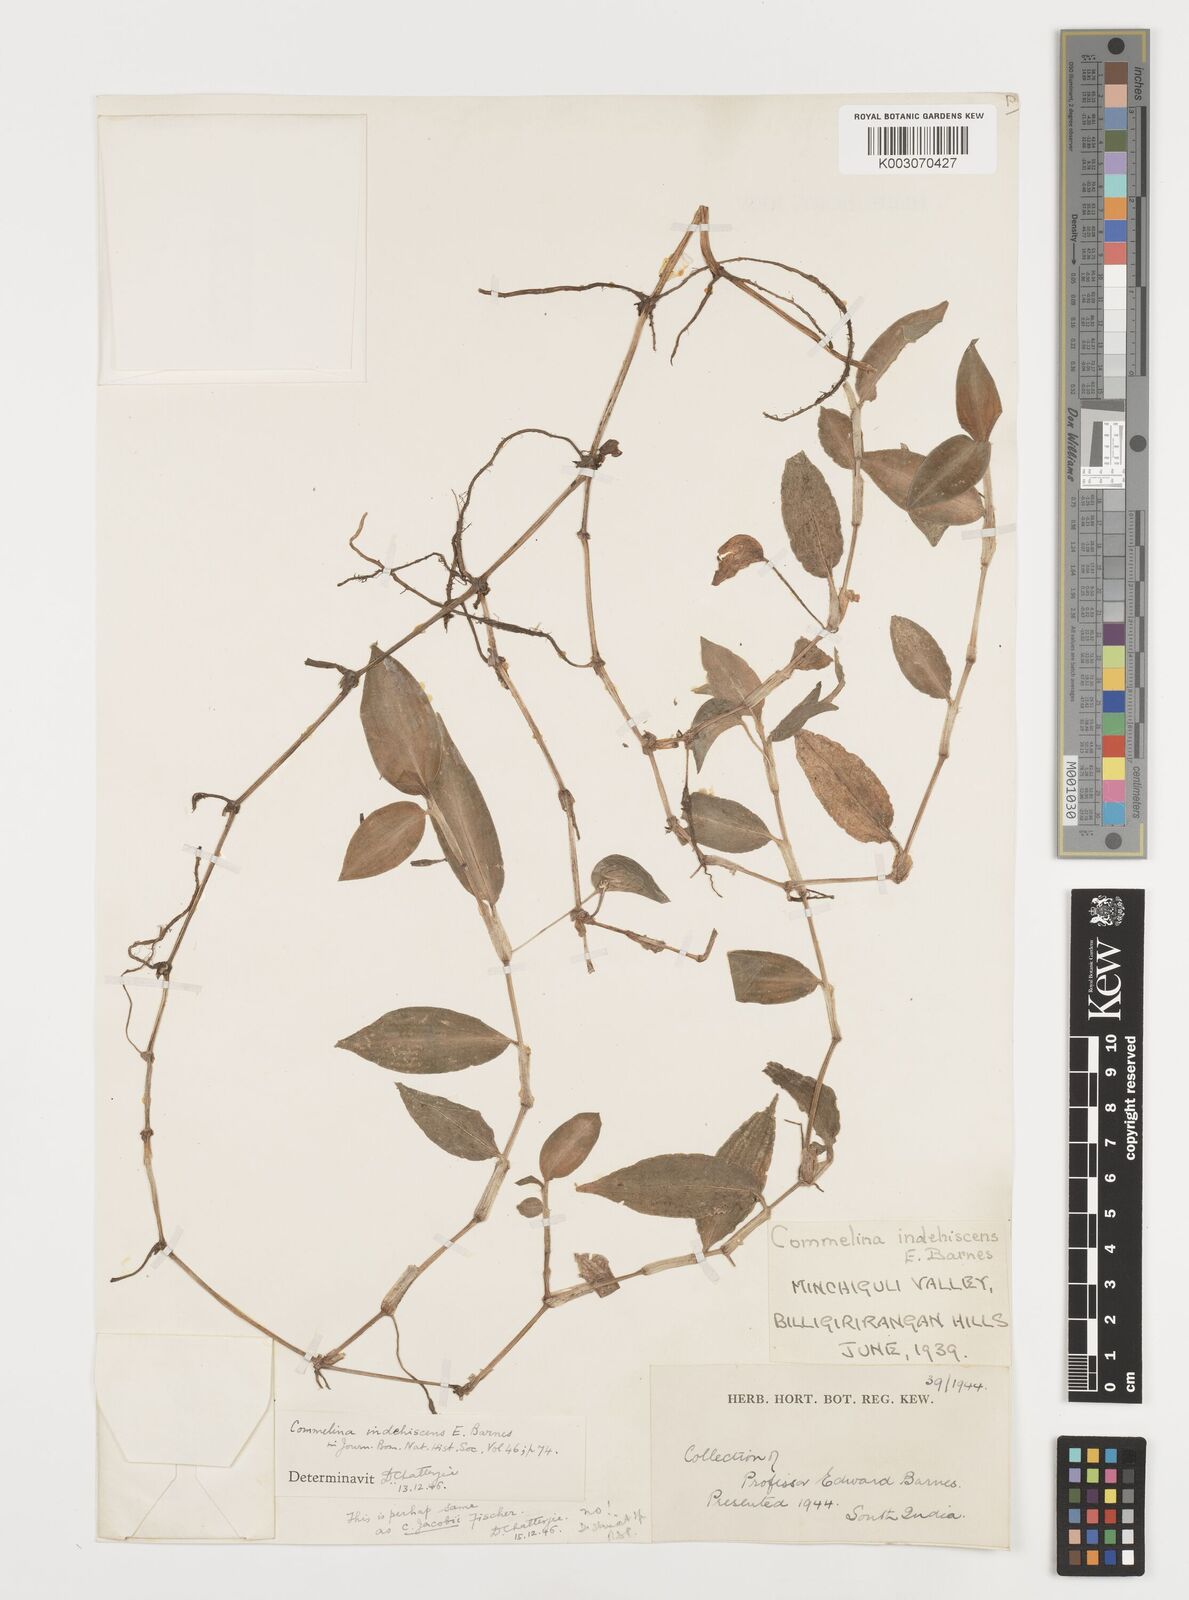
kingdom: Plantae
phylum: Tracheophyta
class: Liliopsida
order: Commelinales
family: Commelinaceae
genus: Commelina
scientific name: Commelina indehiscens
